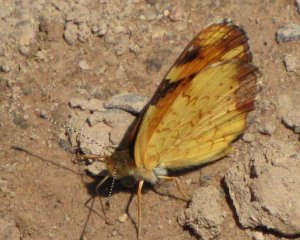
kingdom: Animalia
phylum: Arthropoda
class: Insecta
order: Lepidoptera
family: Nymphalidae
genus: Phyciodes
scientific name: Phyciodes tharos
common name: Northern Crescent
